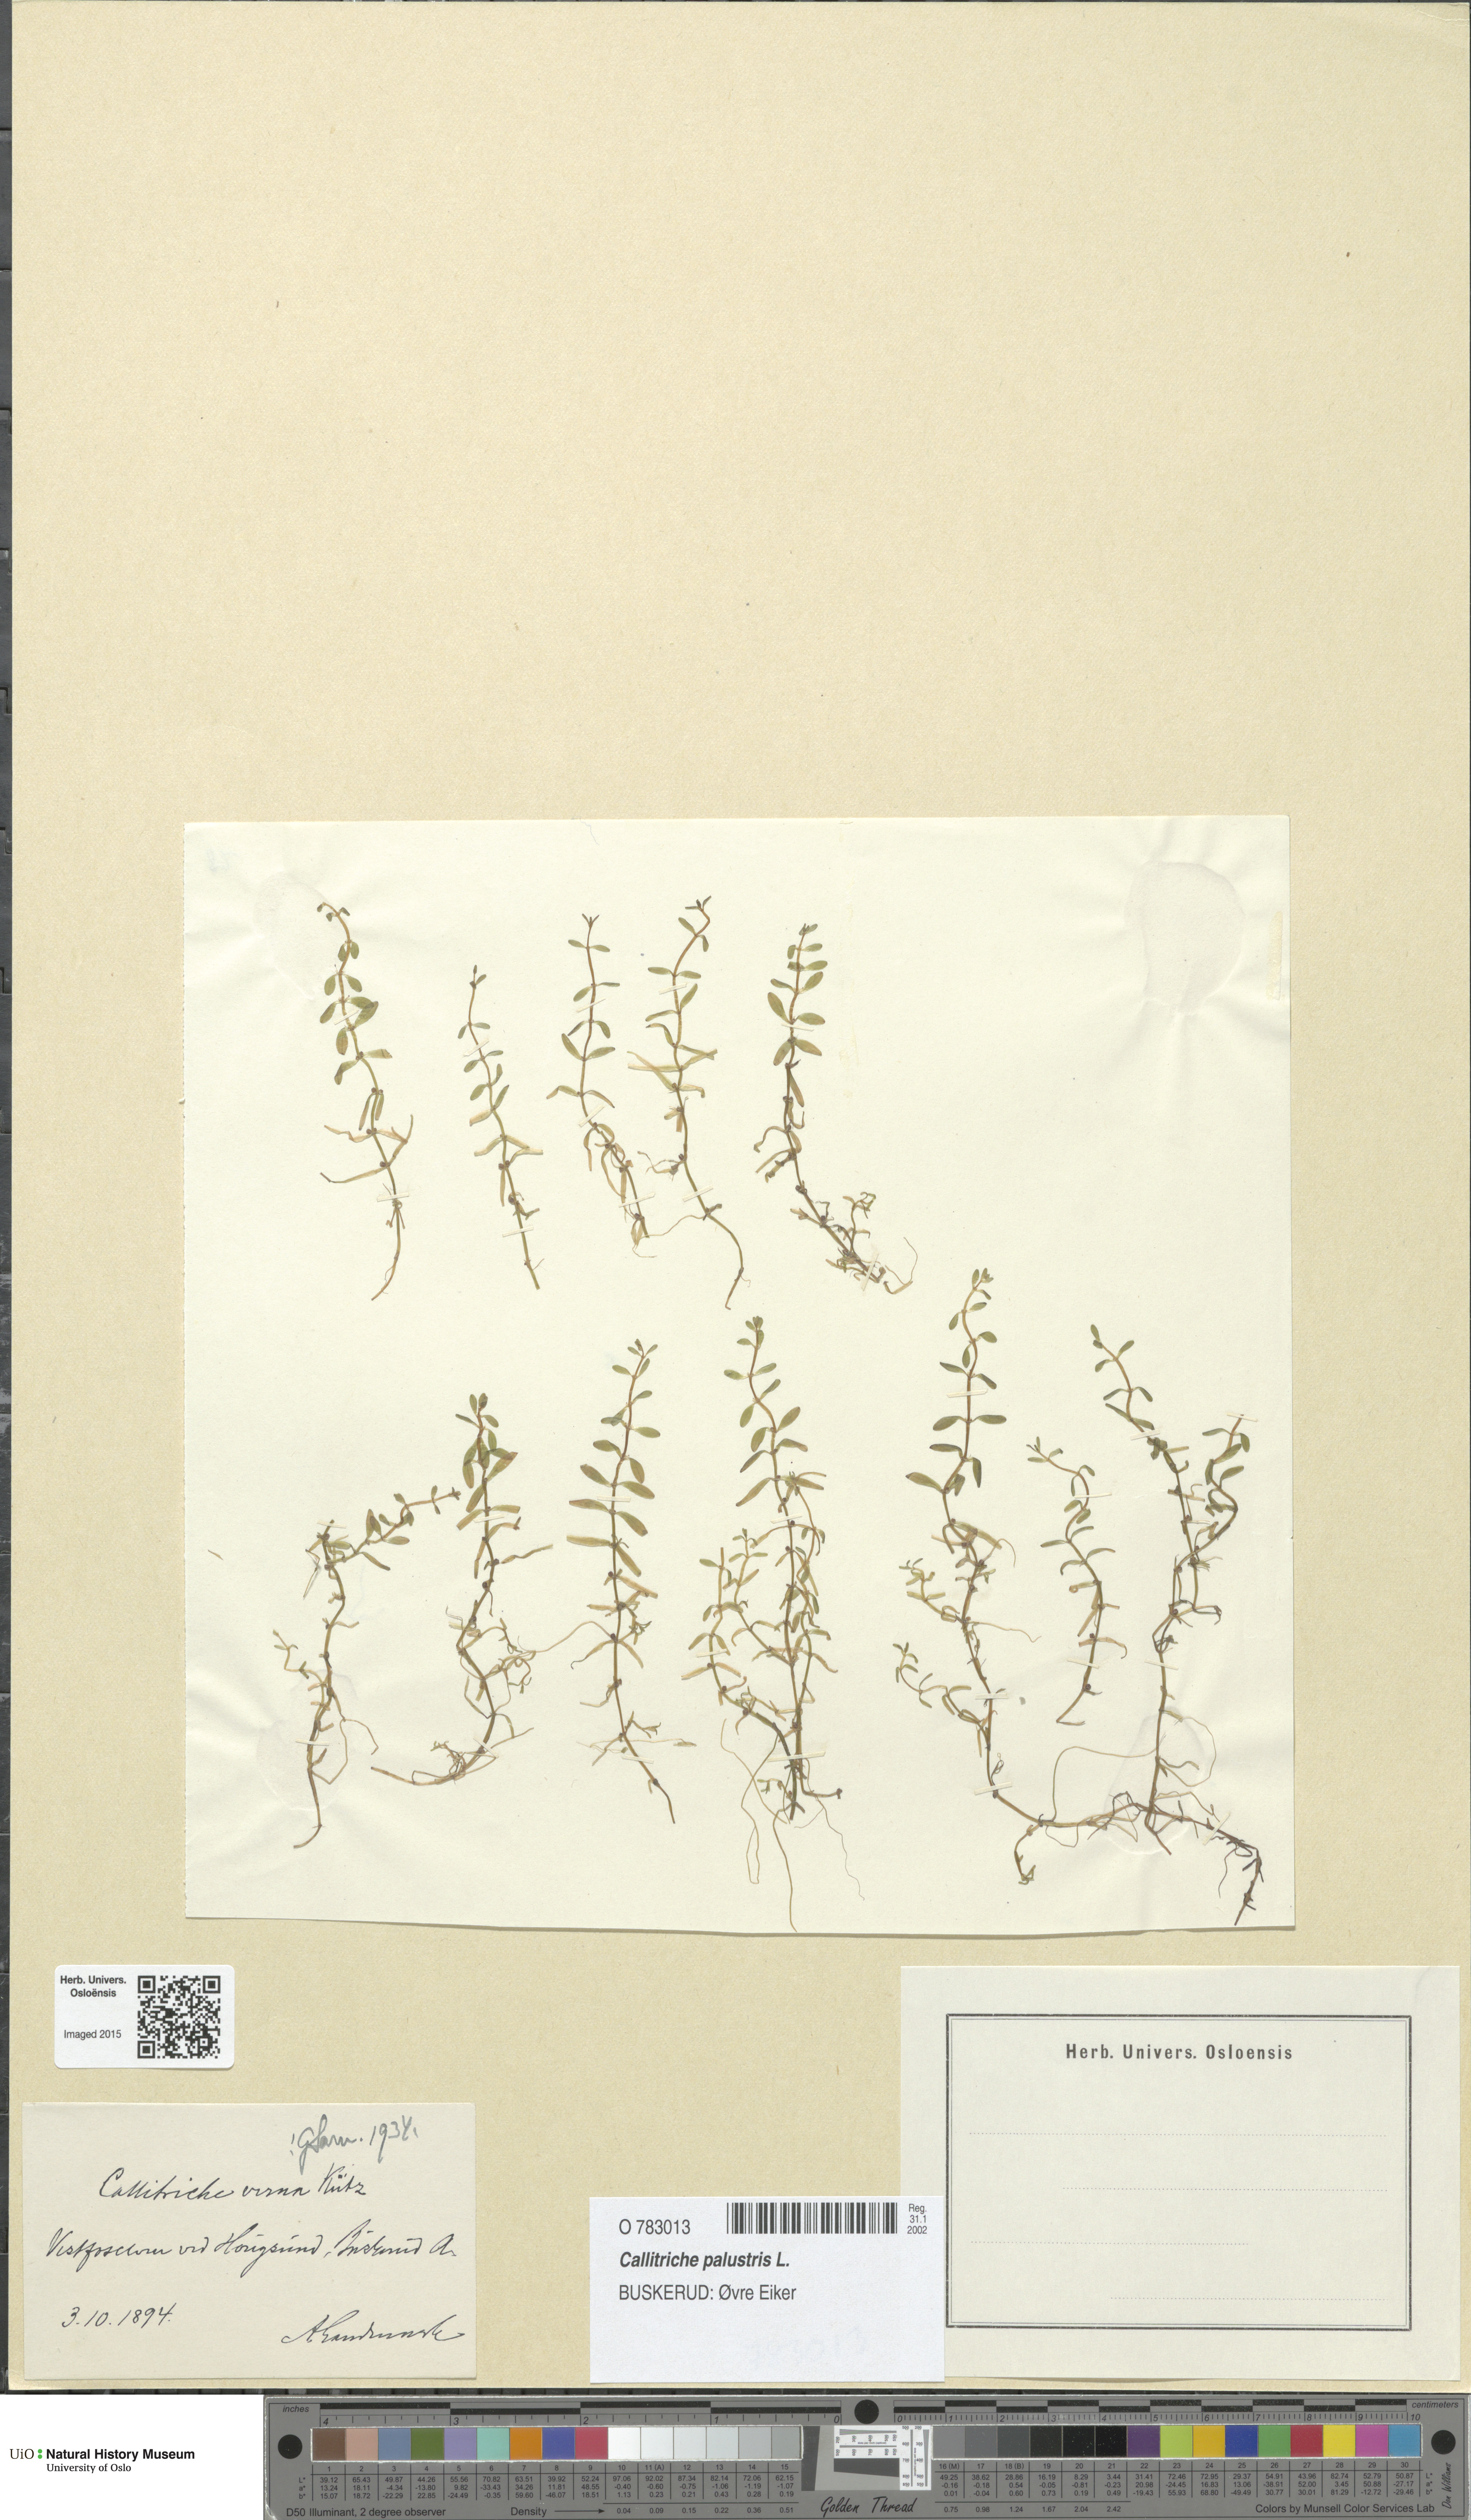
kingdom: Plantae
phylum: Tracheophyta
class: Magnoliopsida
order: Lamiales
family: Plantaginaceae
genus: Callitriche
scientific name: Callitriche palustris
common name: Spring water-starwort
